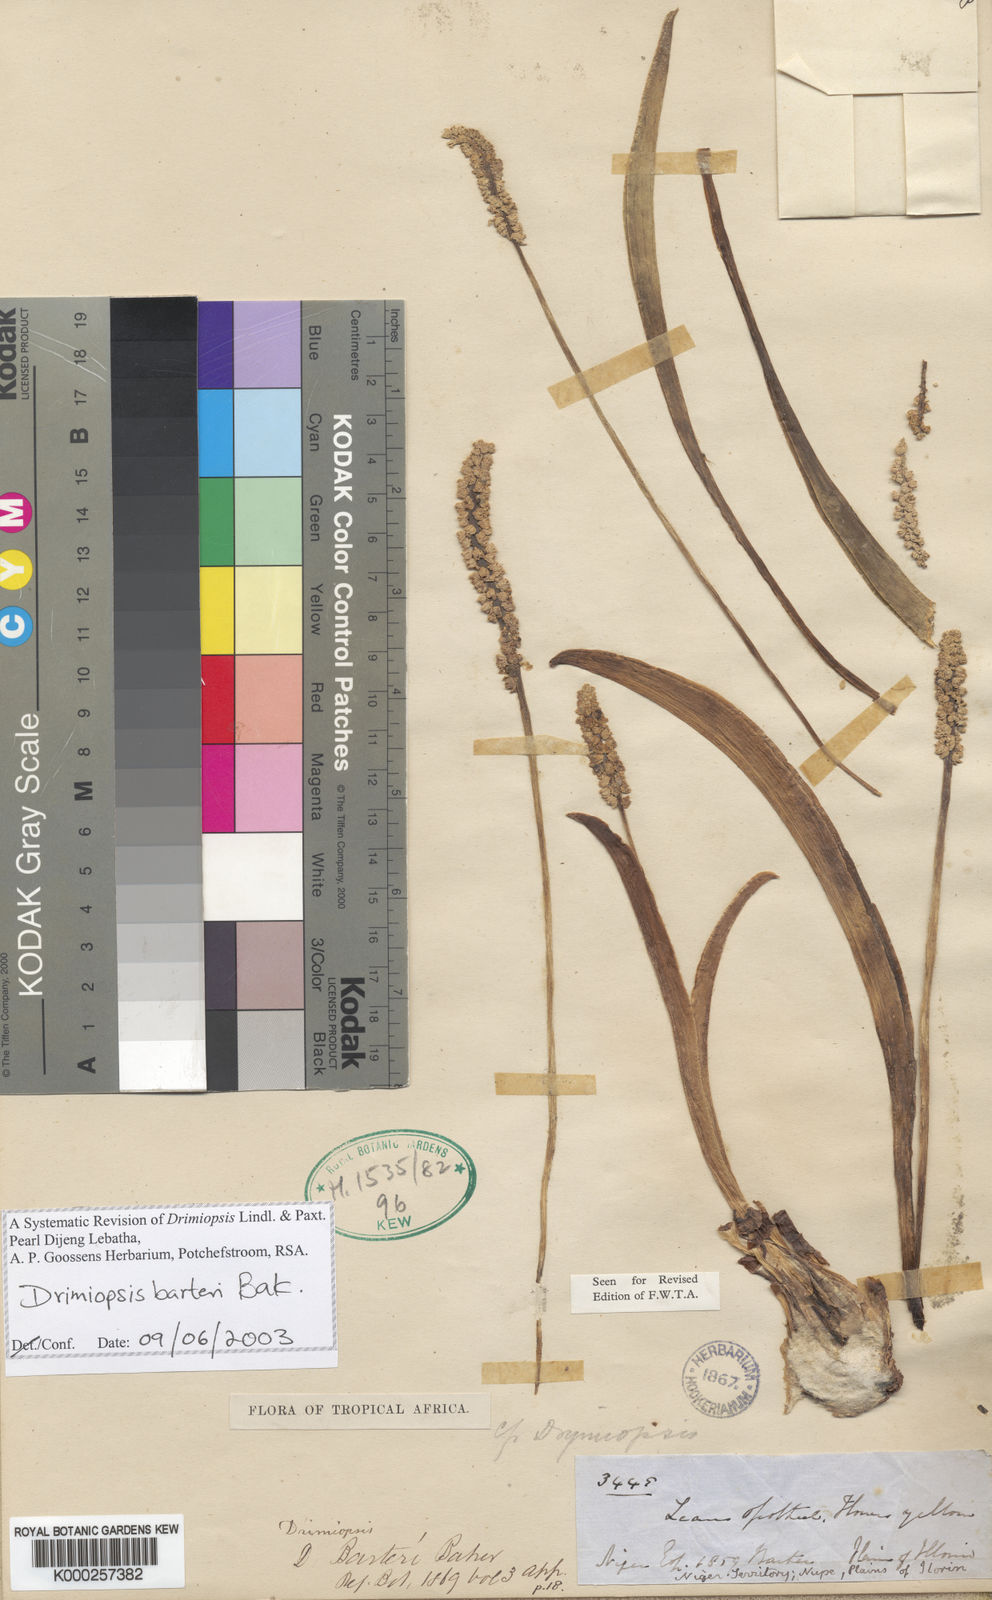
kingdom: Plantae
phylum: Tracheophyta
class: Liliopsida
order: Asparagales
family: Asparagaceae
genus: Drimiopsis
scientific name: Drimiopsis barteri
